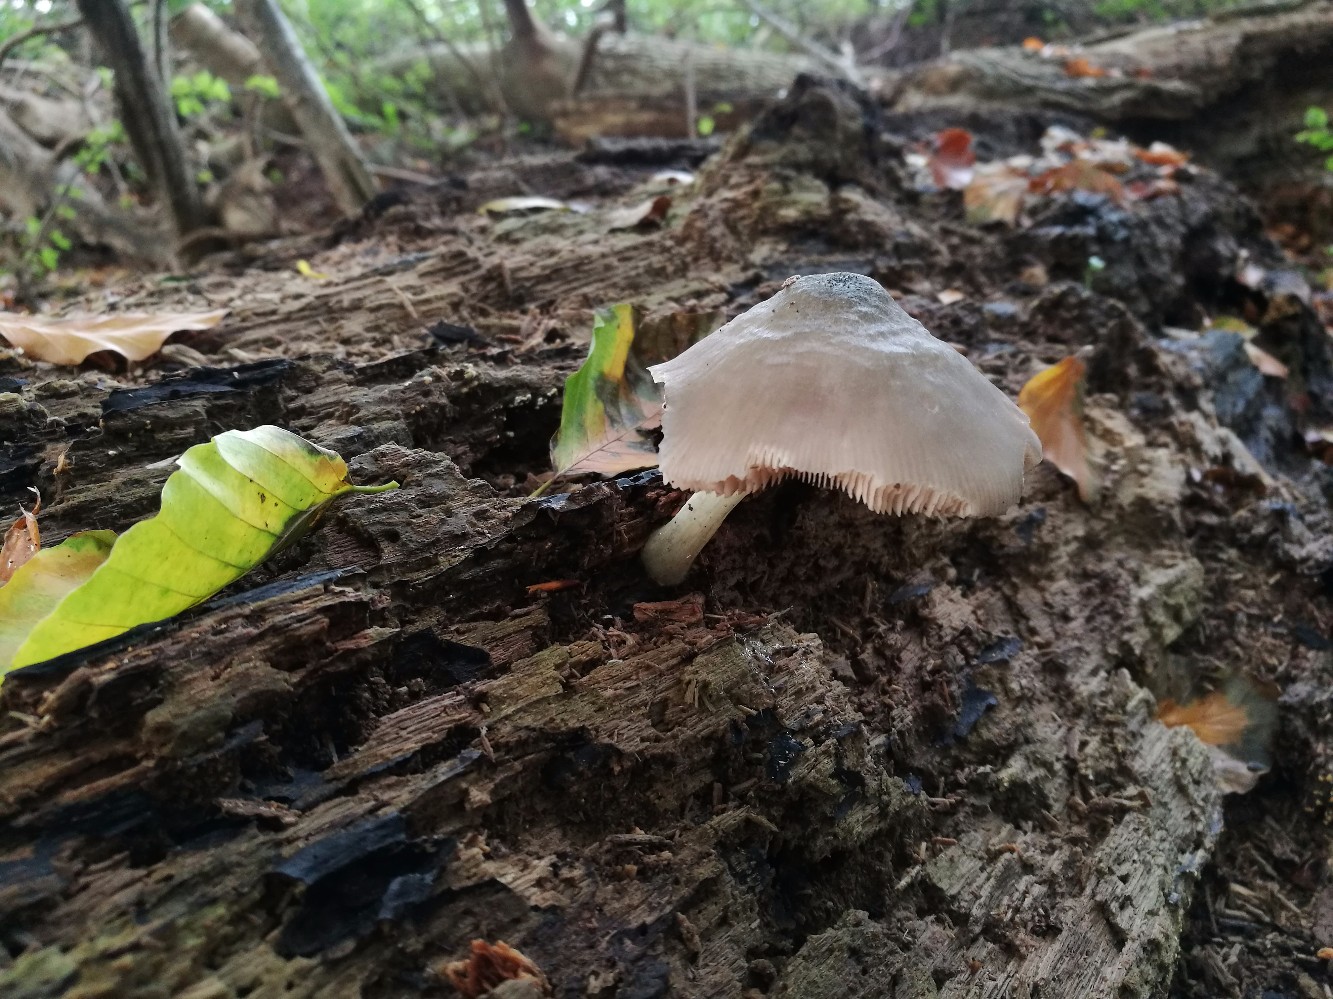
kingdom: Fungi
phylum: Basidiomycota
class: Agaricomycetes
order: Agaricales
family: Pluteaceae
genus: Pluteus
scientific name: Pluteus salicinus
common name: stiv skærmhat
